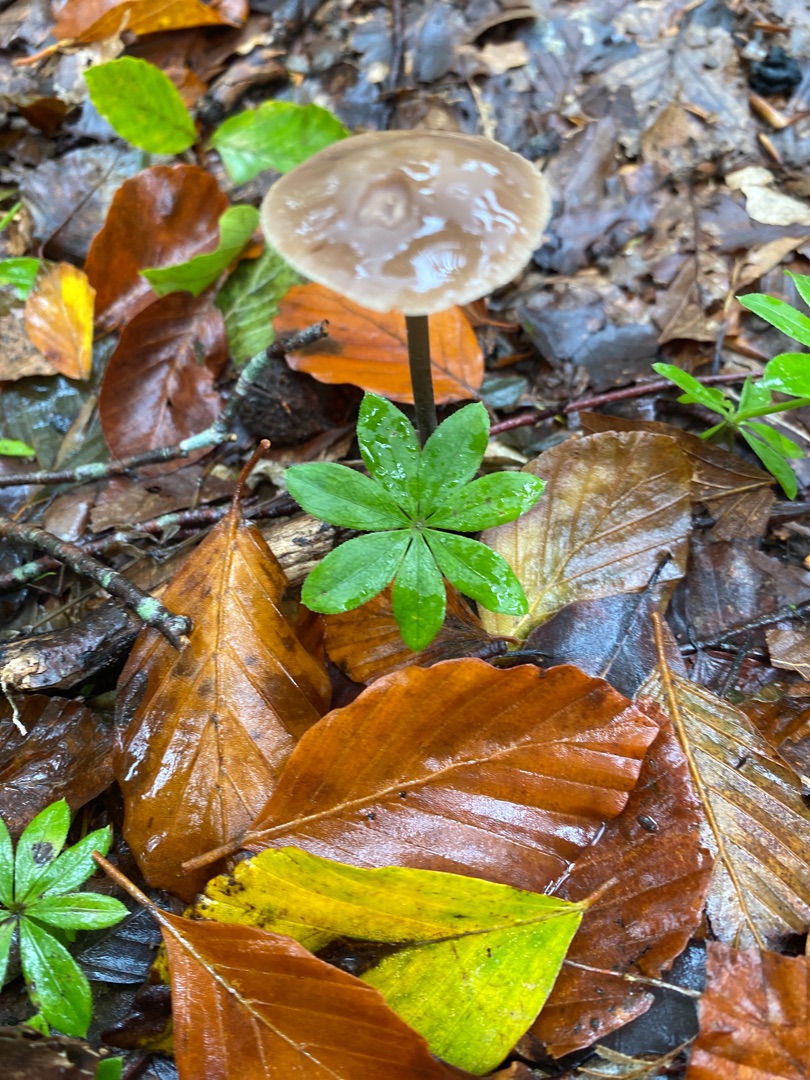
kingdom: Fungi
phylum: Basidiomycota
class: Agaricomycetes
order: Agaricales
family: Omphalotaceae
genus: Mycetinis
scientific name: Mycetinis alliaceus
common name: Stor løghat
